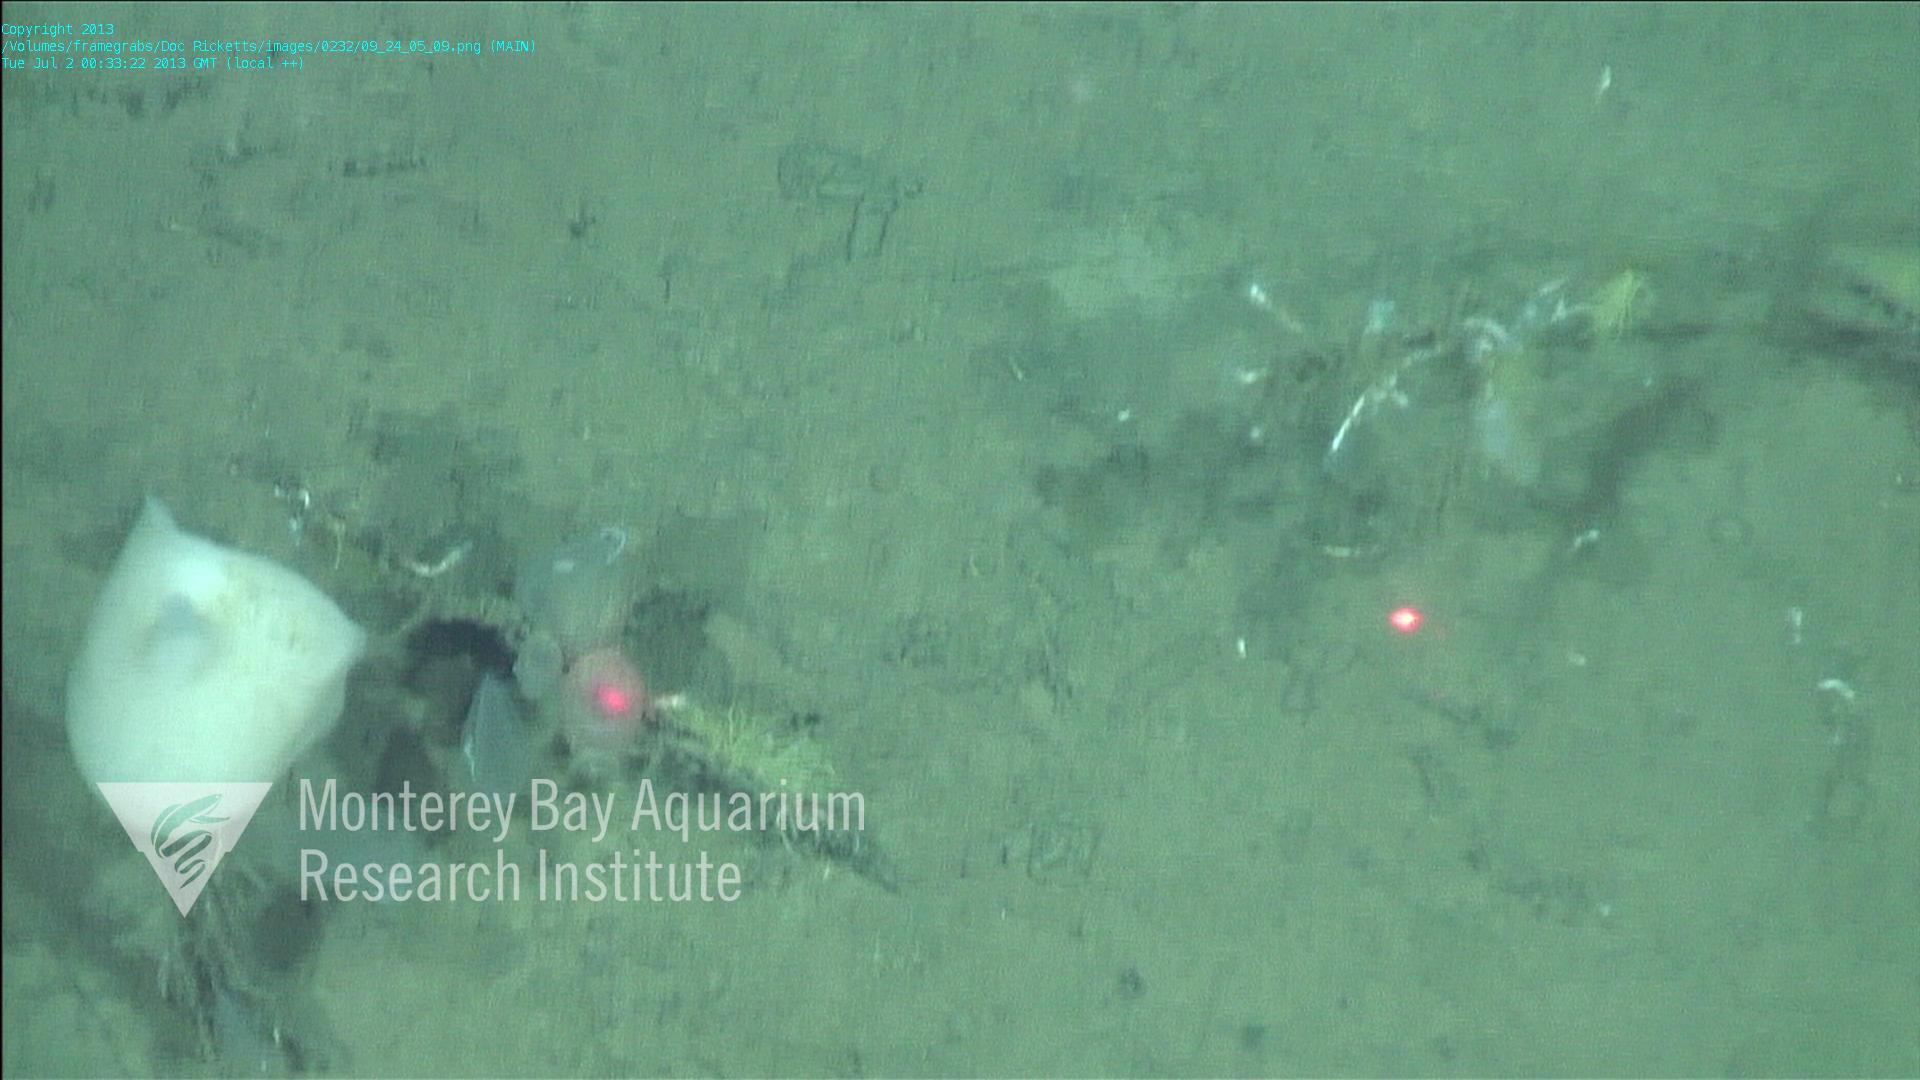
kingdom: Animalia
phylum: Porifera
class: Hexactinellida
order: Amphidiscosida
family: Hyalonematidae
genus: Hyalonema
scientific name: Hyalonema bianchoratum
